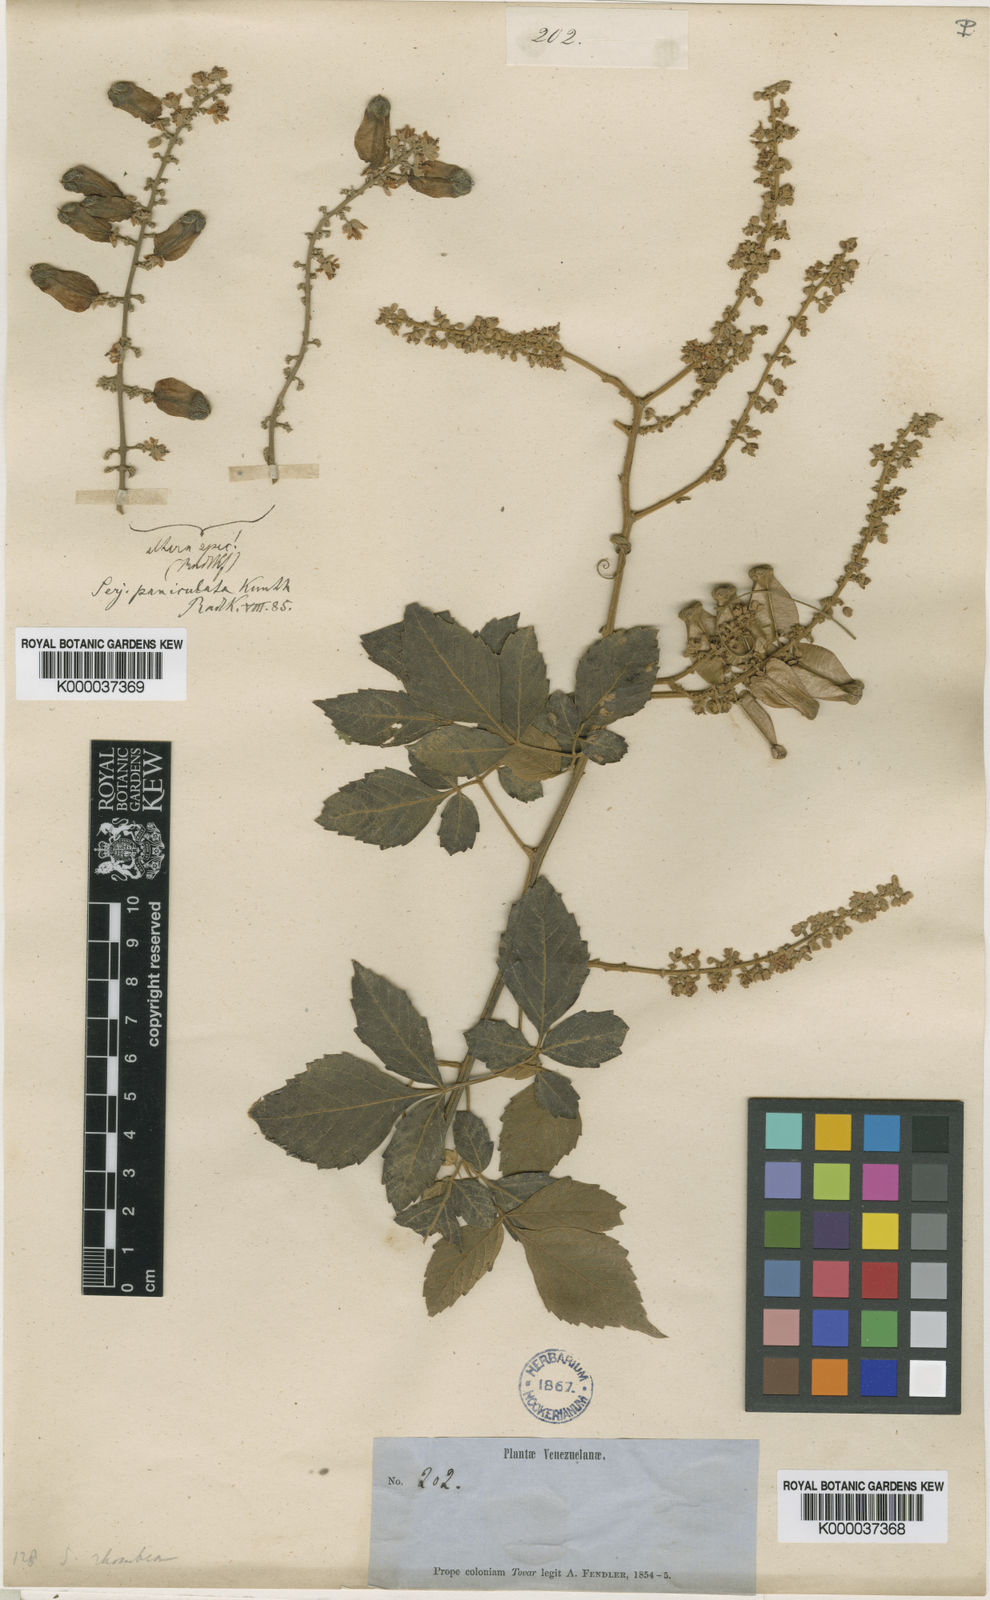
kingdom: Plantae
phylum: Tracheophyta
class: Magnoliopsida
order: Sapindales
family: Sapindaceae
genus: Serjania
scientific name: Serjania rhombea
